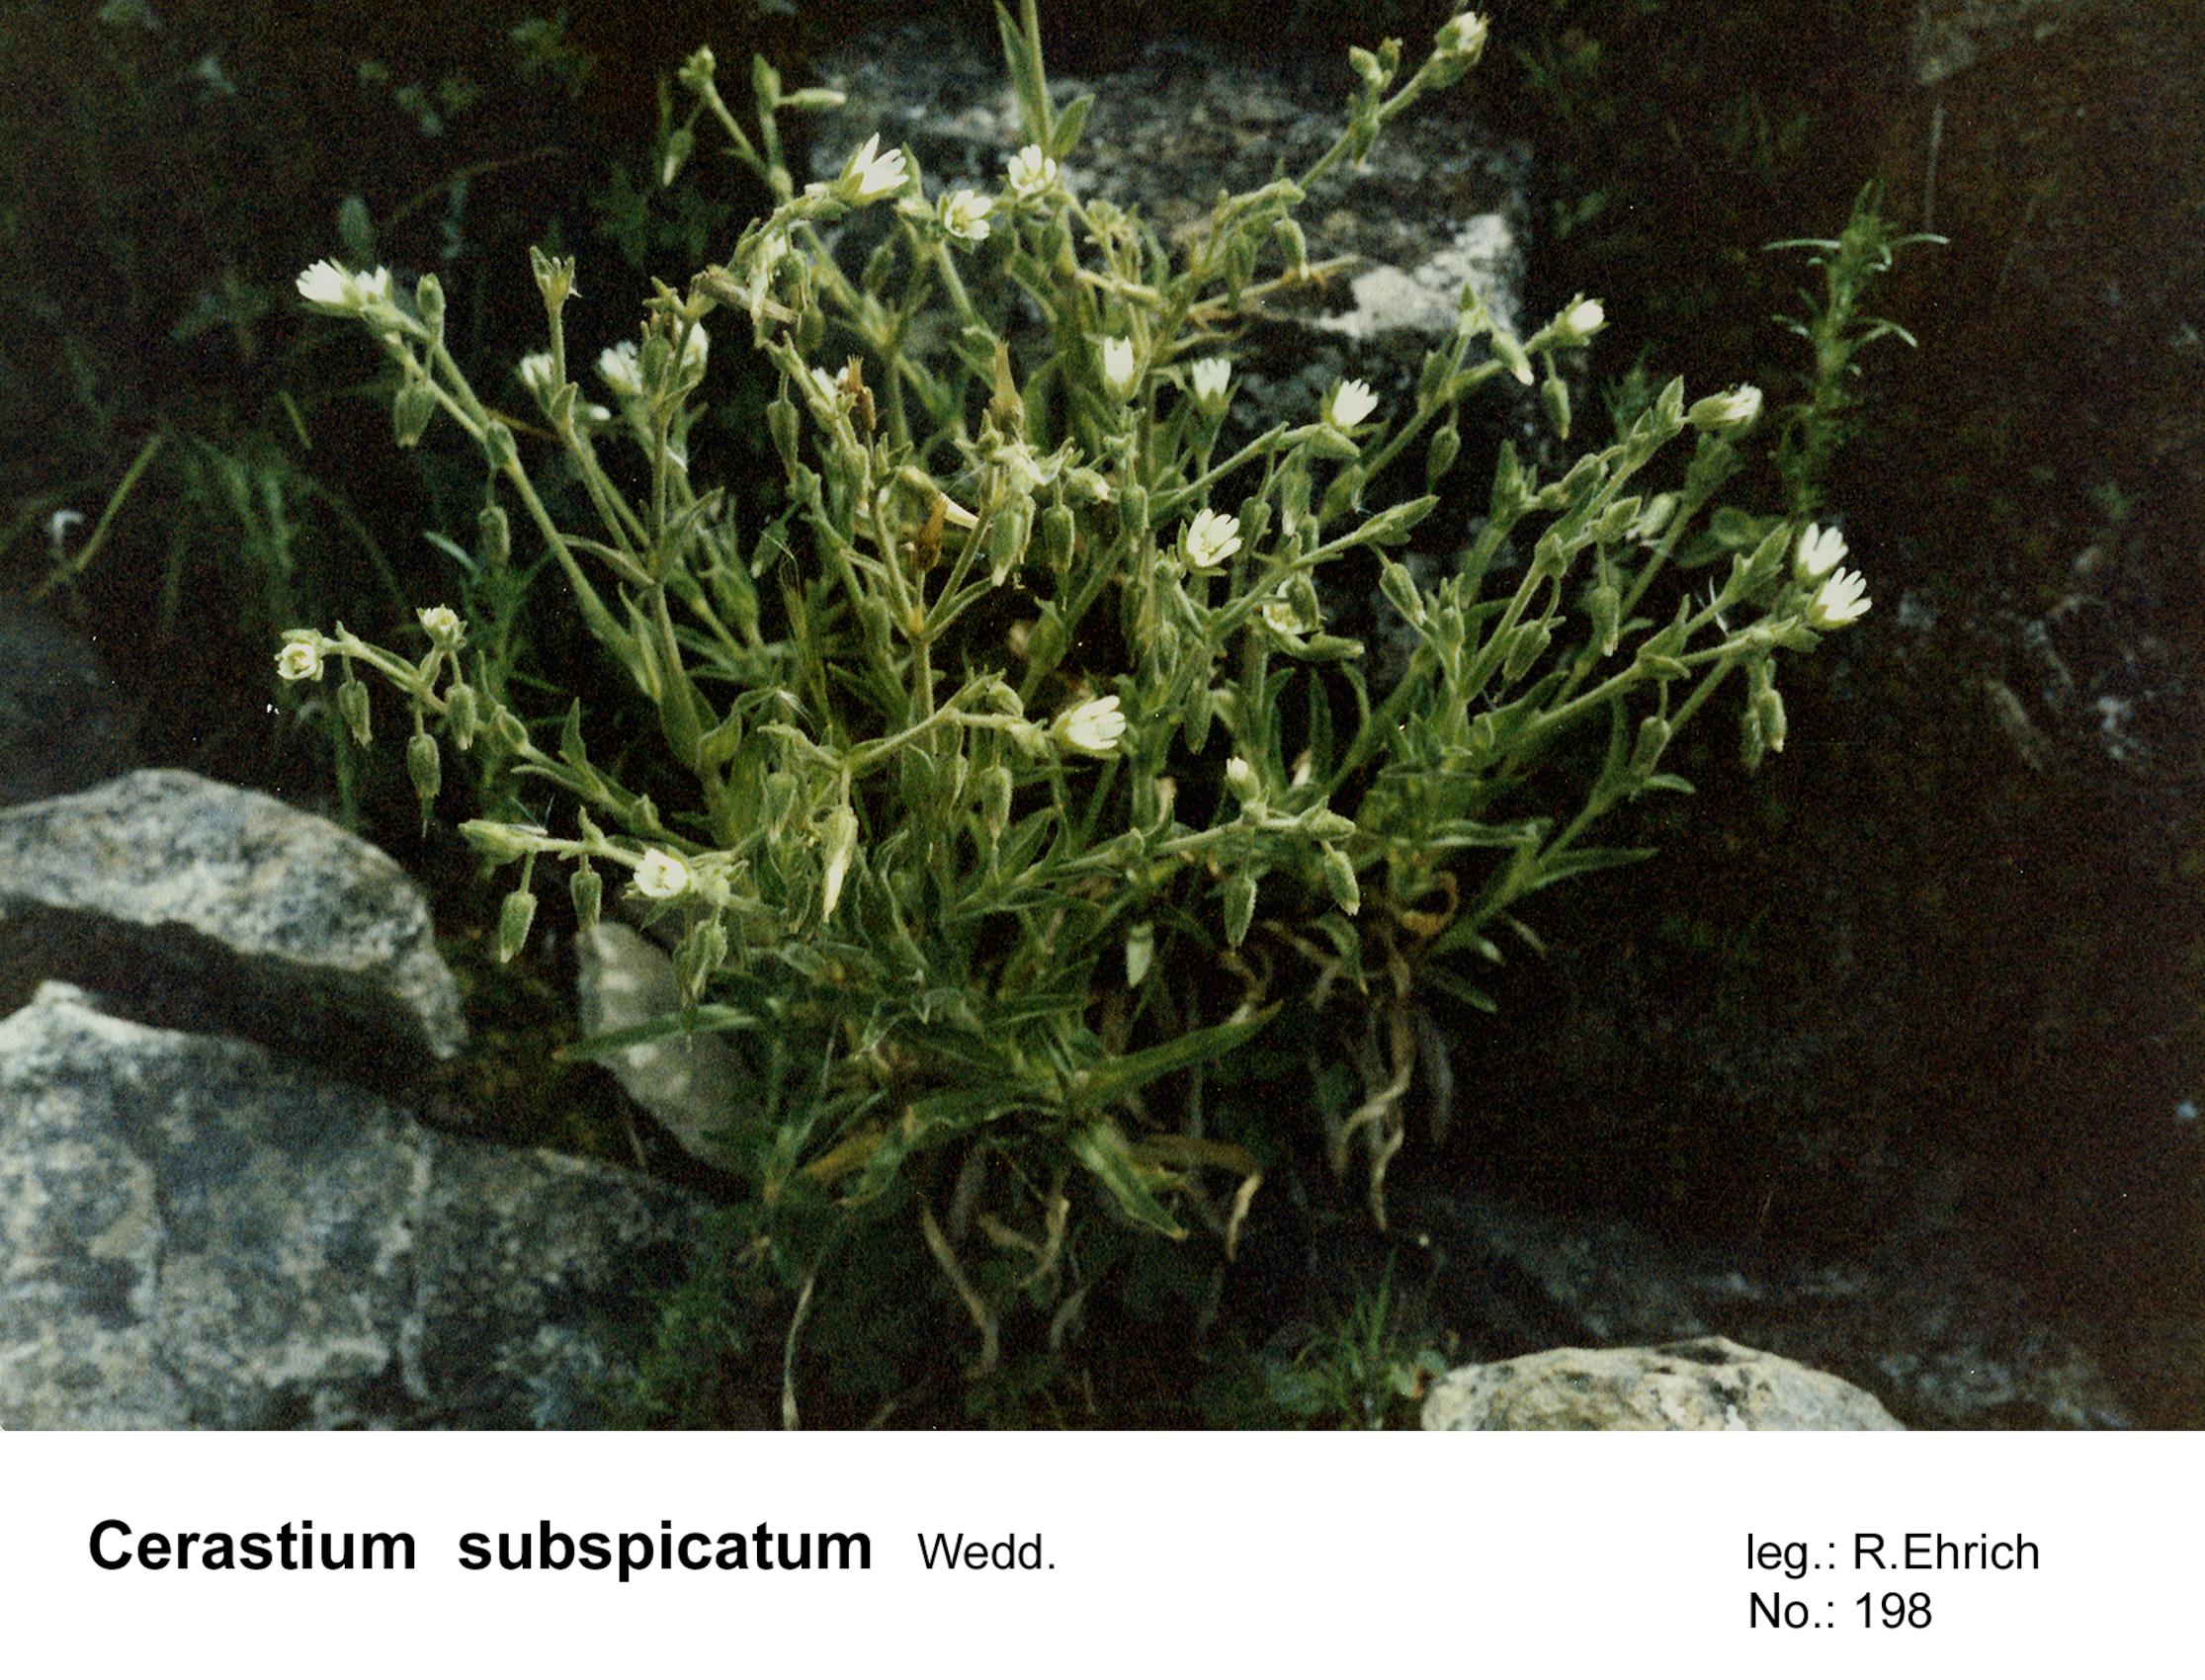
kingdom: Plantae
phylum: Tracheophyta
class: Magnoliopsida
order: Caryophyllales
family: Caryophyllaceae
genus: Cerastium
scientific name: Cerastium subspicatum
